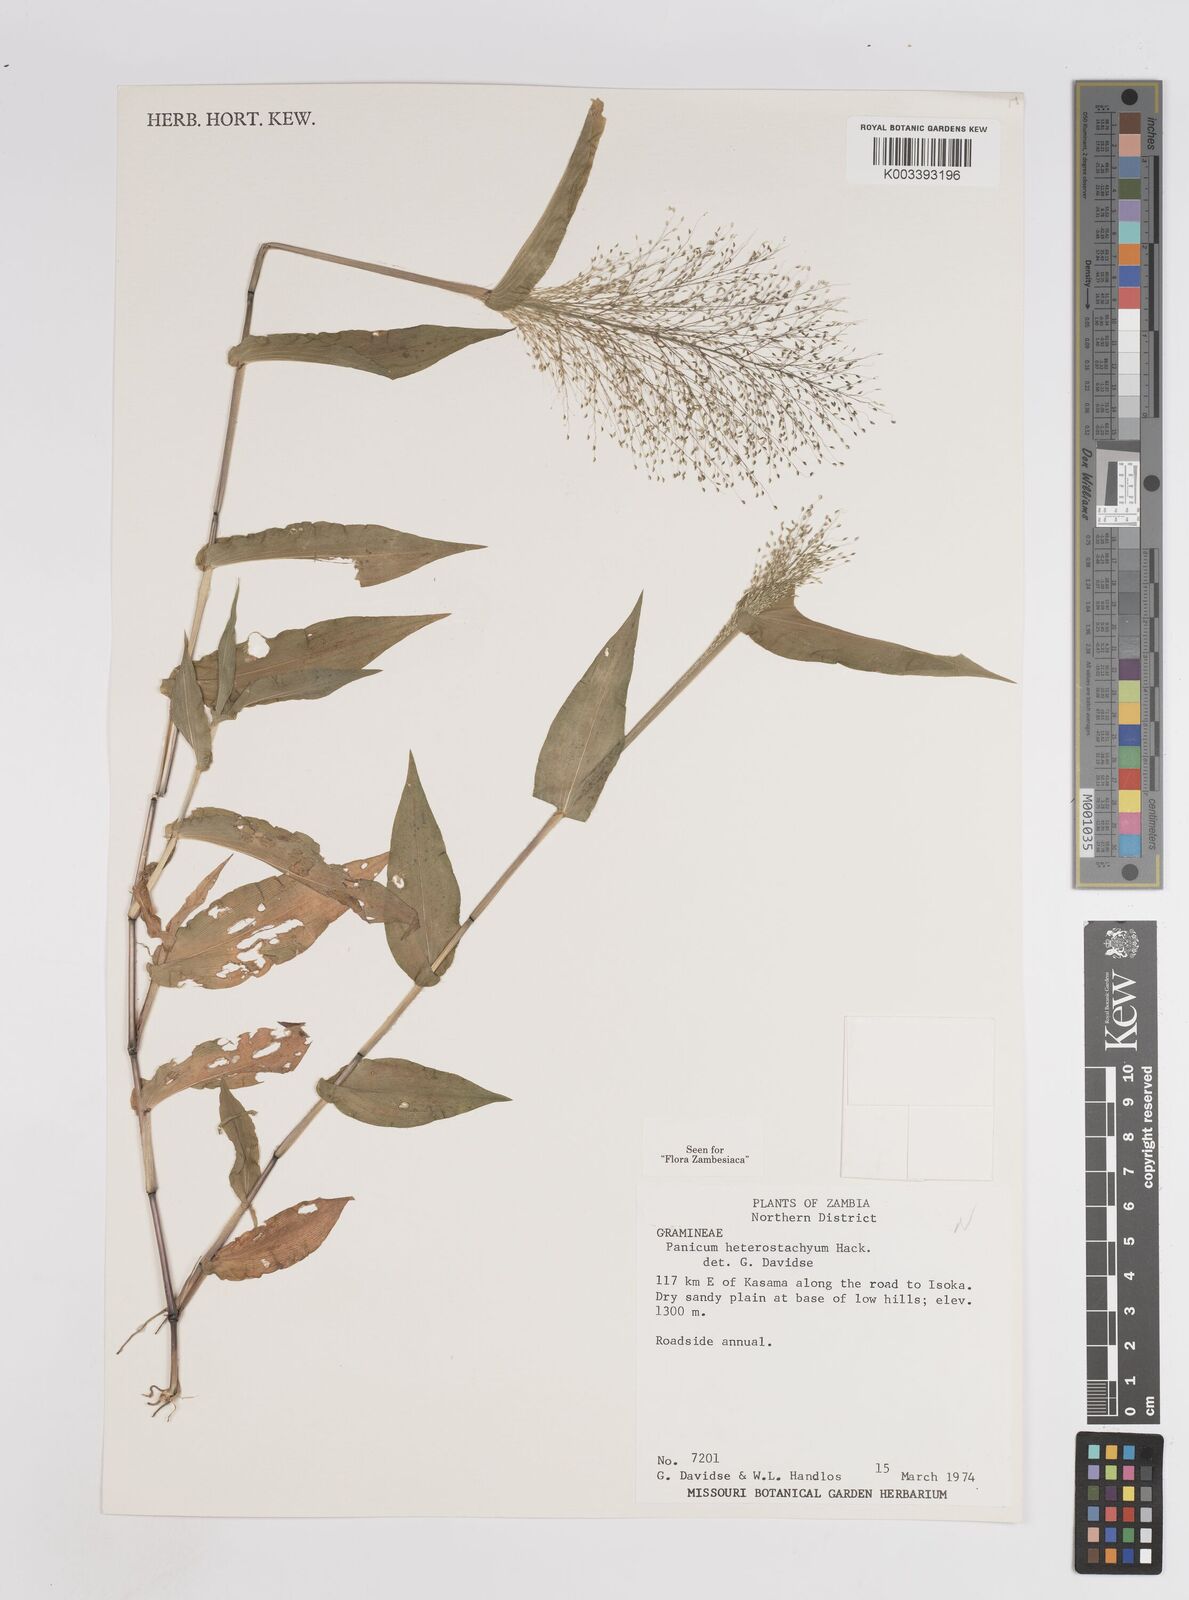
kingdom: Plantae
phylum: Tracheophyta
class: Liliopsida
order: Poales
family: Poaceae
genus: Panicum
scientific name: Panicum hirtum
